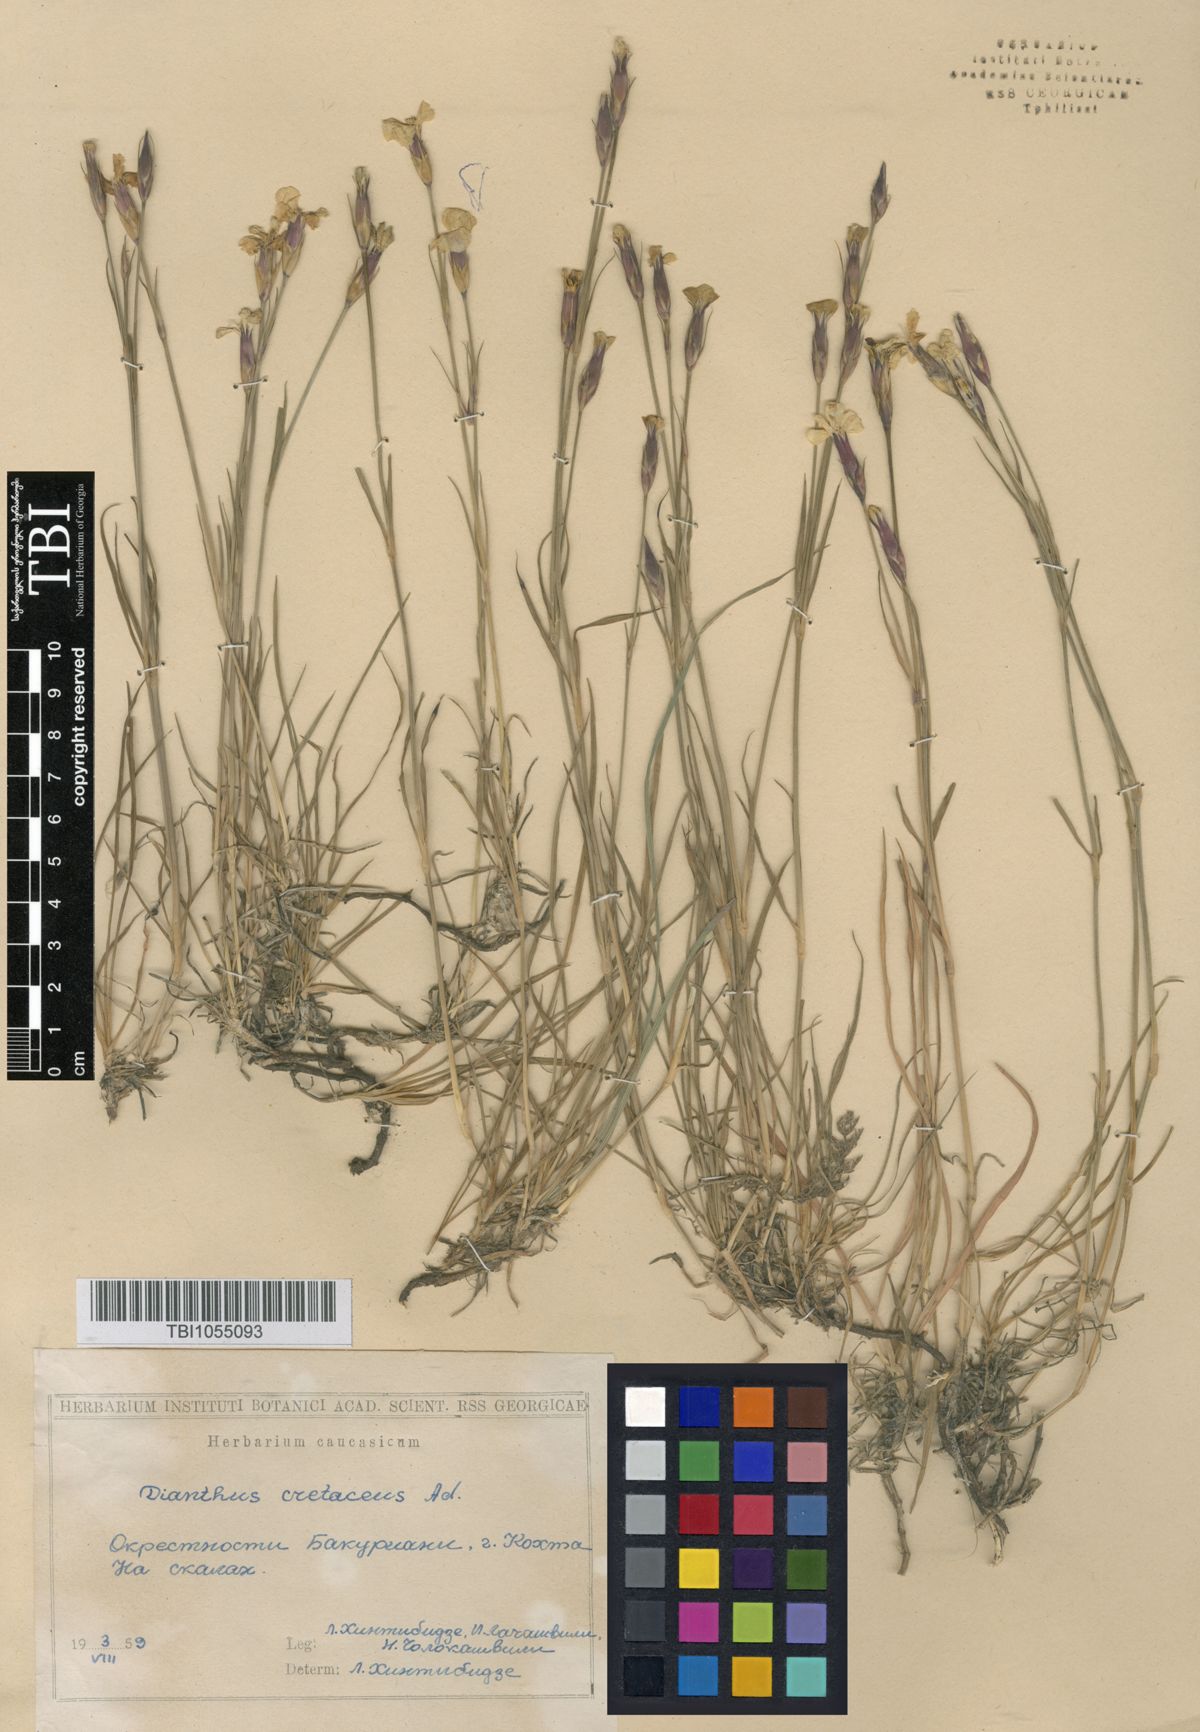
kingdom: Plantae
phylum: Tracheophyta
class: Magnoliopsida
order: Caryophyllales
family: Caryophyllaceae
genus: Dianthus
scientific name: Dianthus cretaceus
